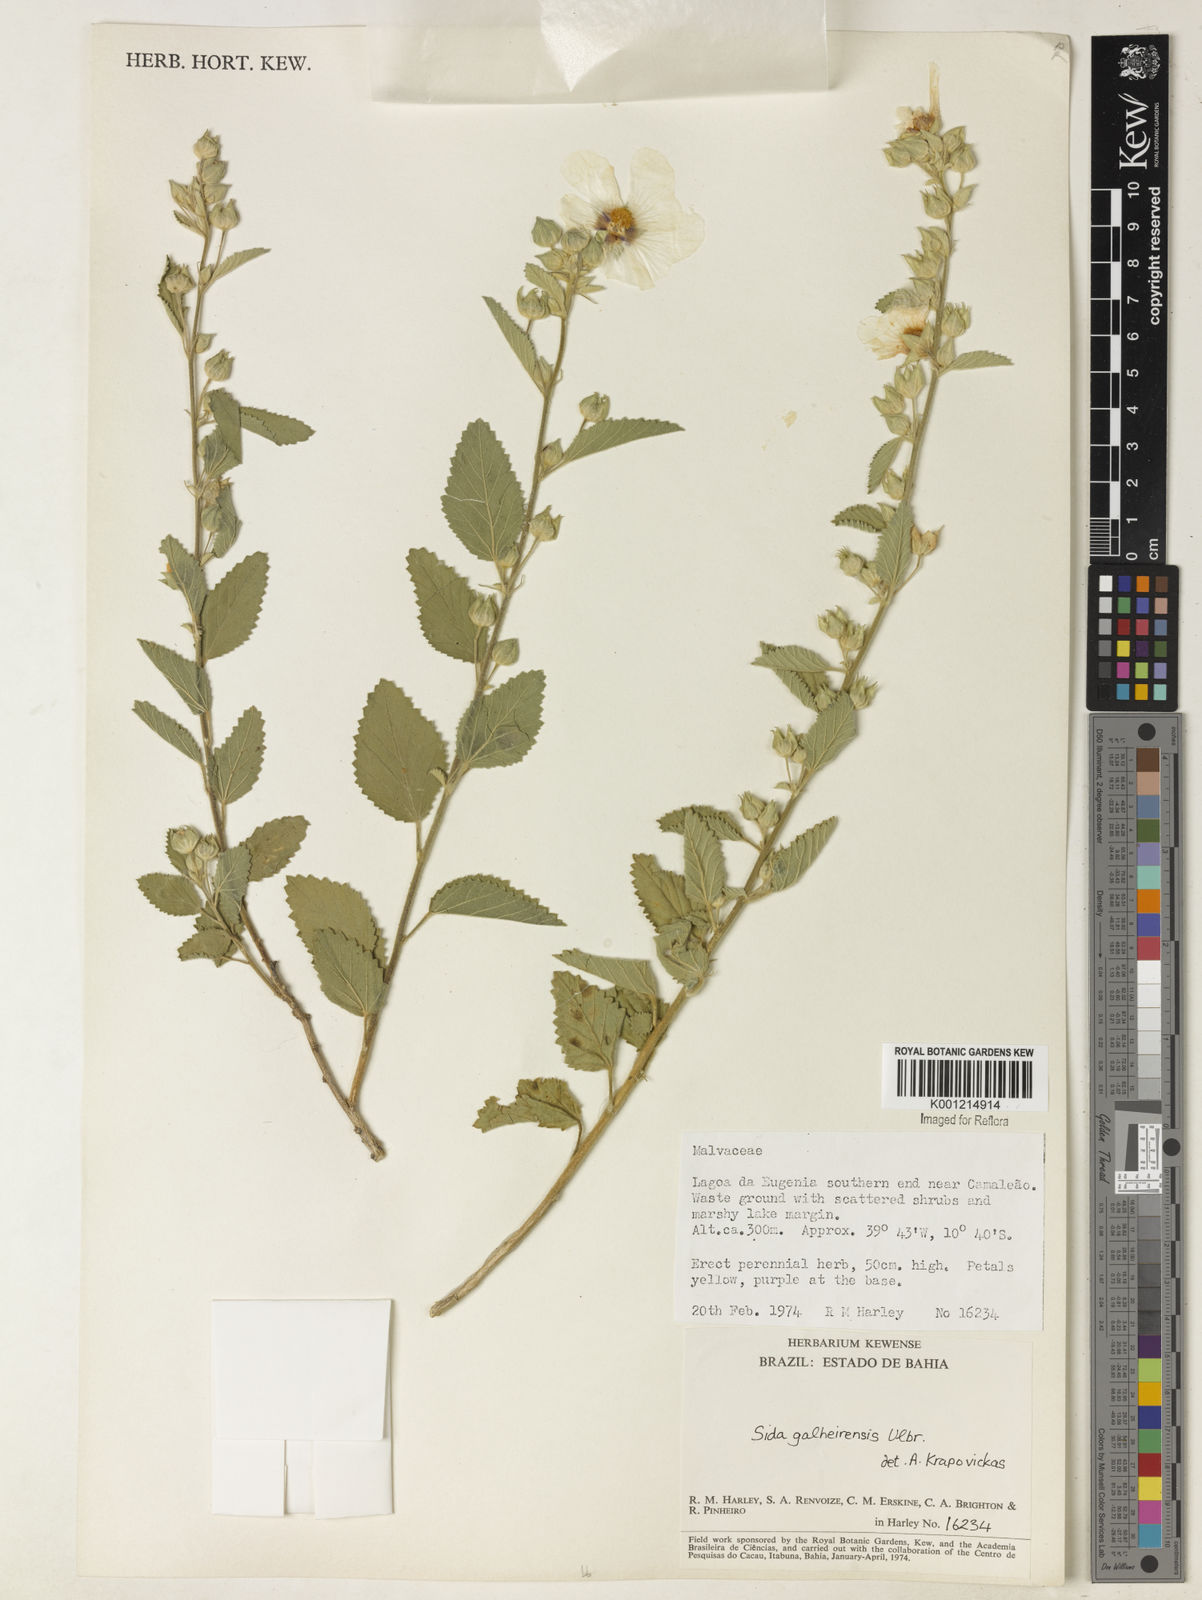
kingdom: Plantae
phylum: Tracheophyta
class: Magnoliopsida
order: Malvales
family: Malvaceae
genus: Sida
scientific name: Sida galheirensis
